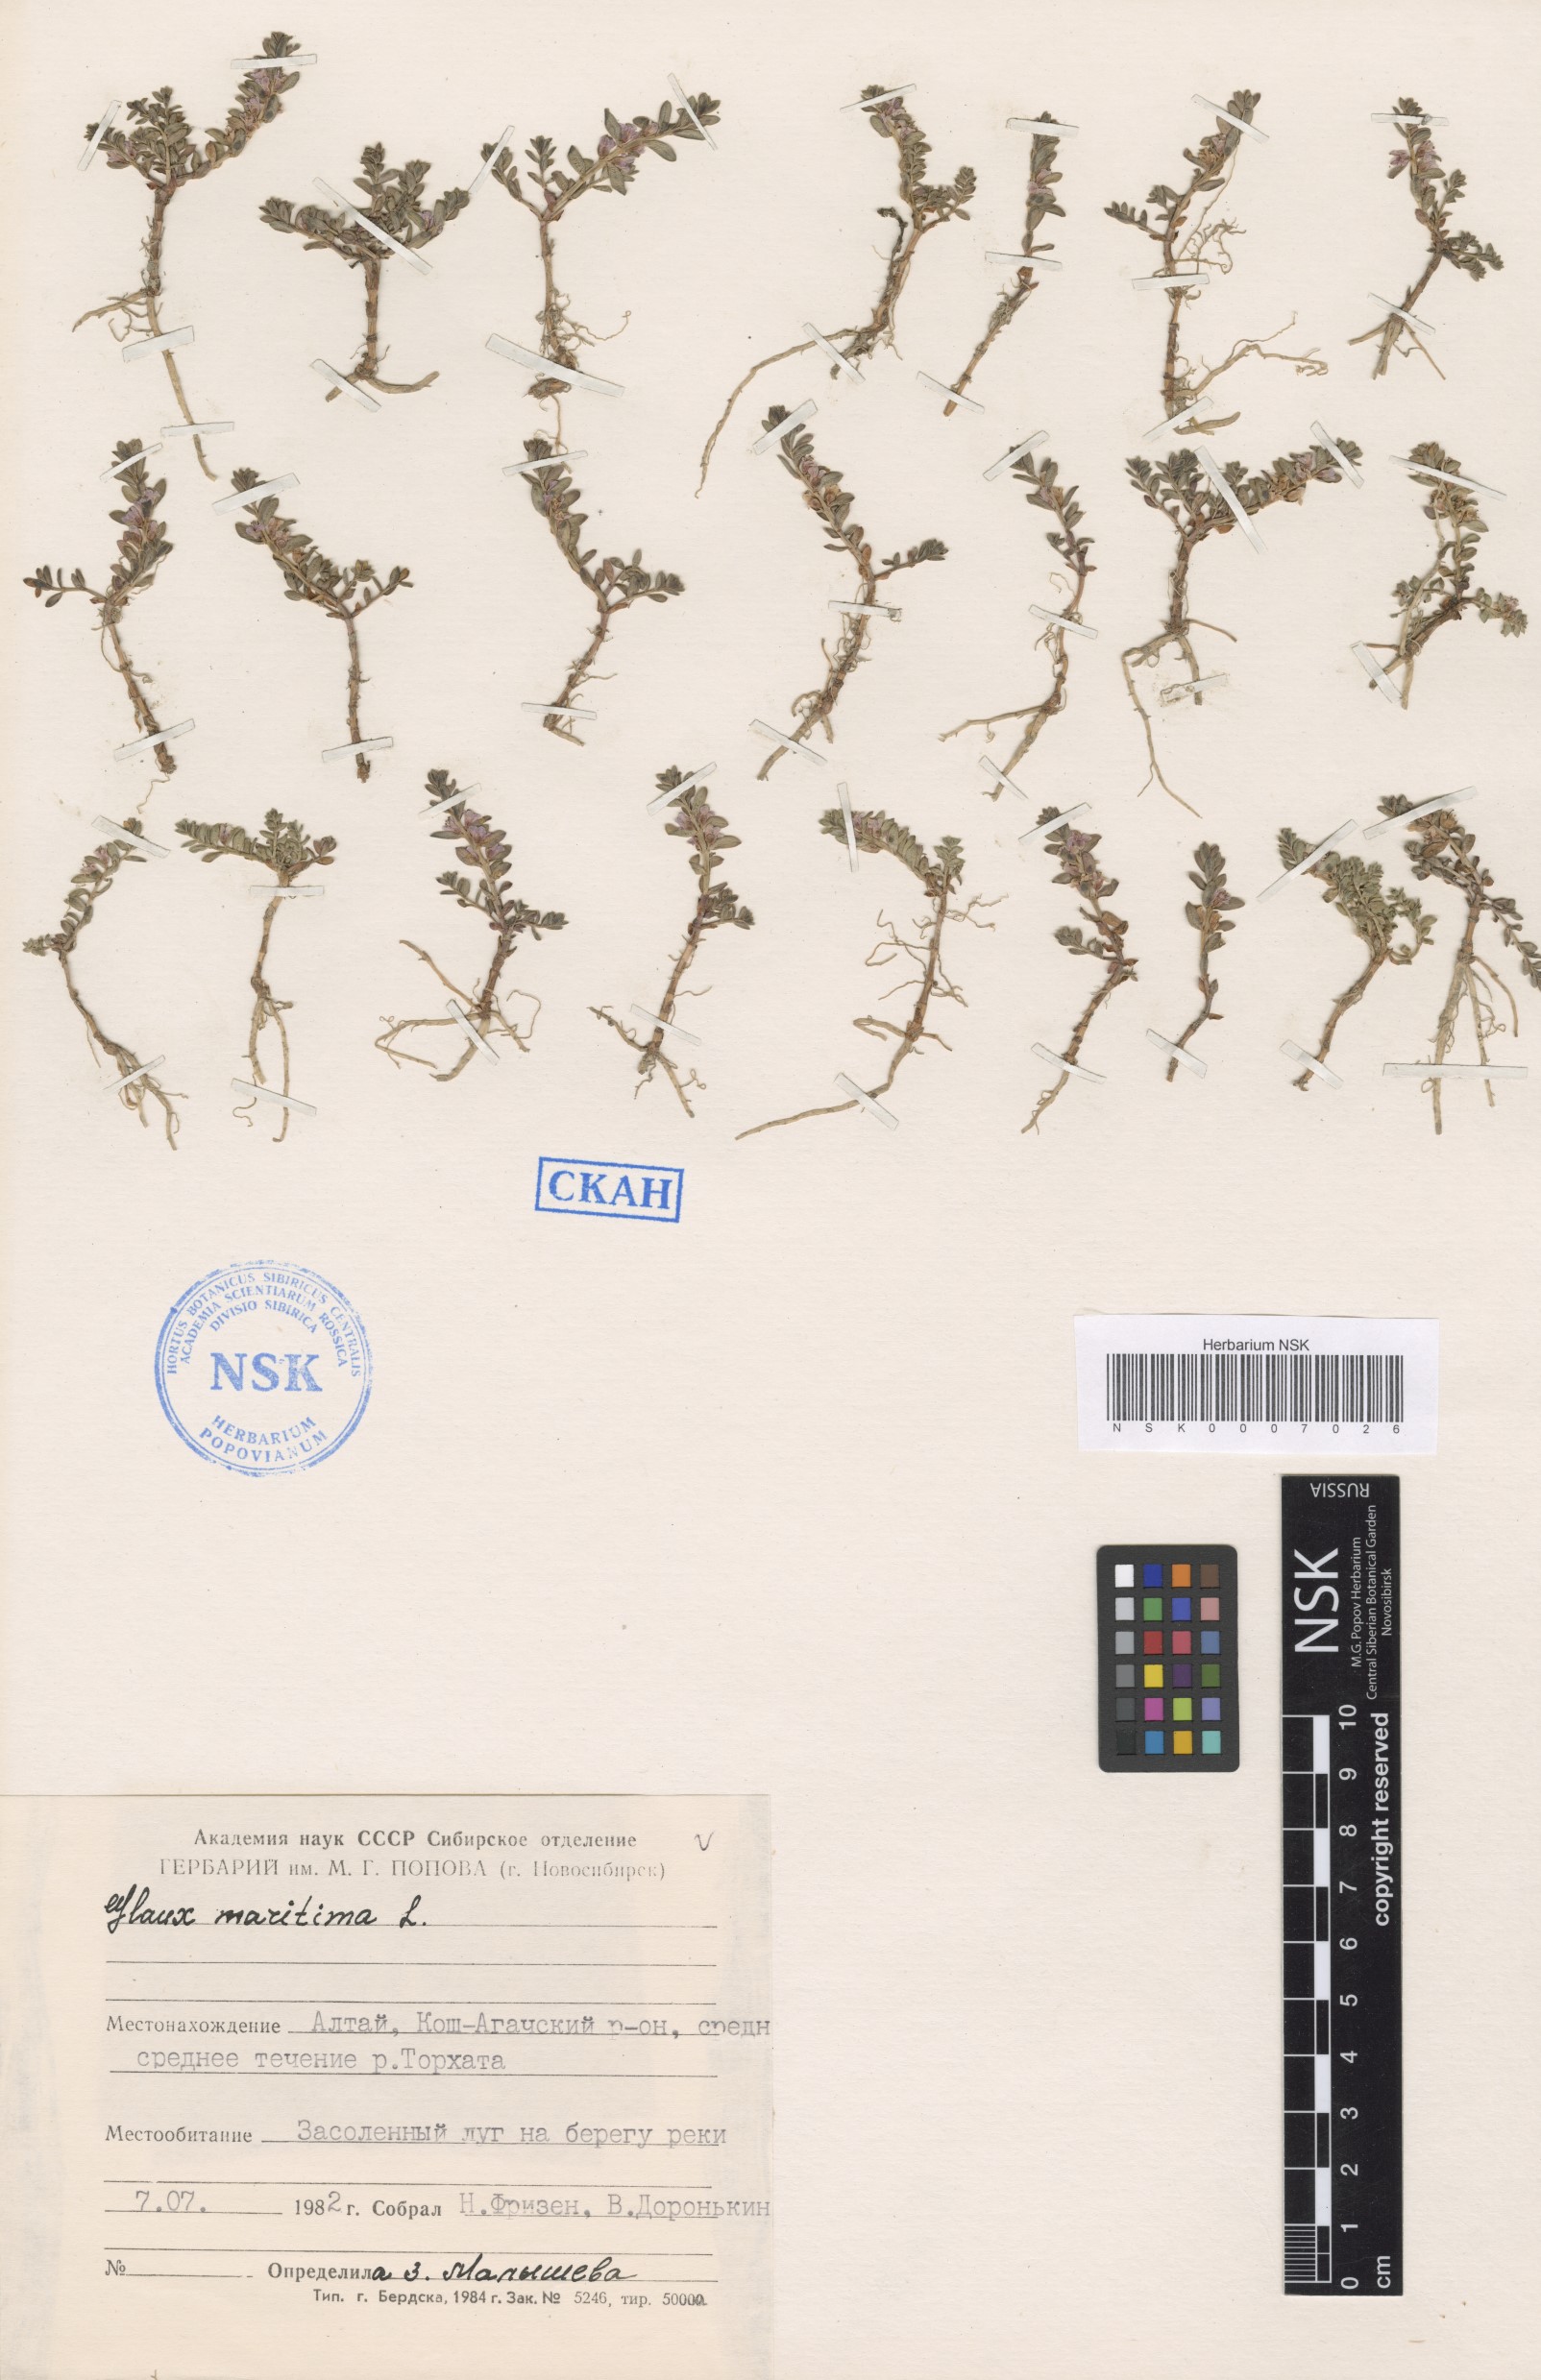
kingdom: Plantae
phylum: Tracheophyta
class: Magnoliopsida
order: Ericales
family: Primulaceae
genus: Lysimachia
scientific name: Lysimachia maritima
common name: Sea milkwort
